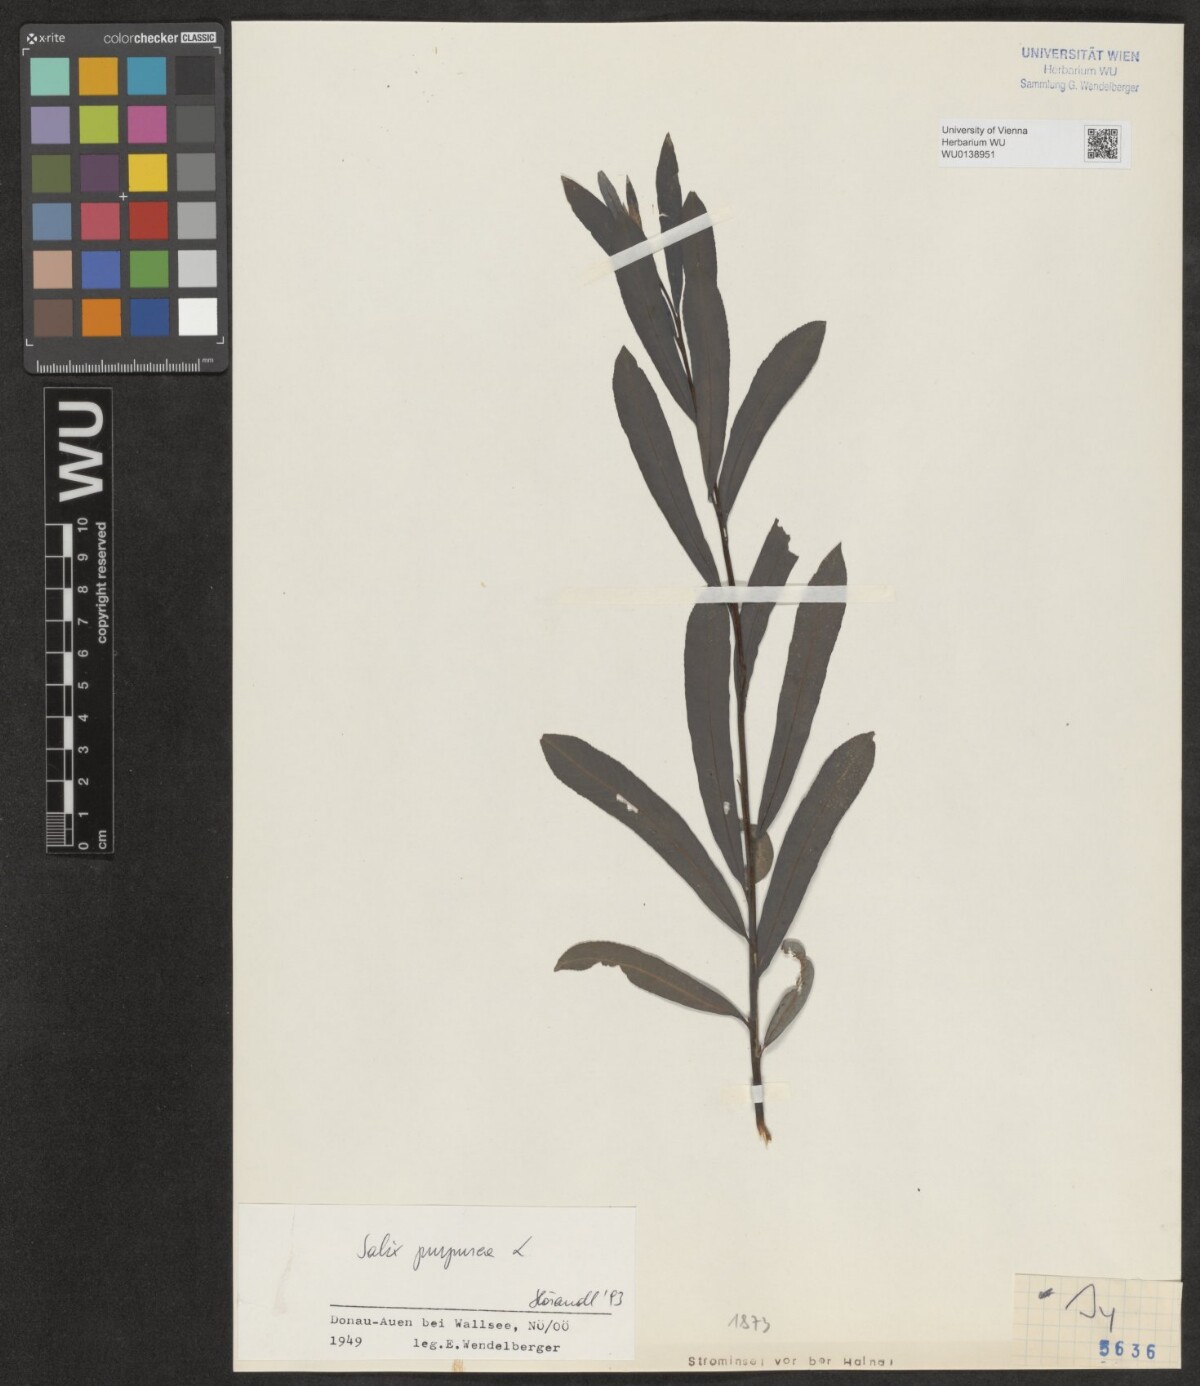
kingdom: Plantae
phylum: Tracheophyta
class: Magnoliopsida
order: Malpighiales
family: Salicaceae
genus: Salix
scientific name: Salix purpurea
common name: Purple willow
